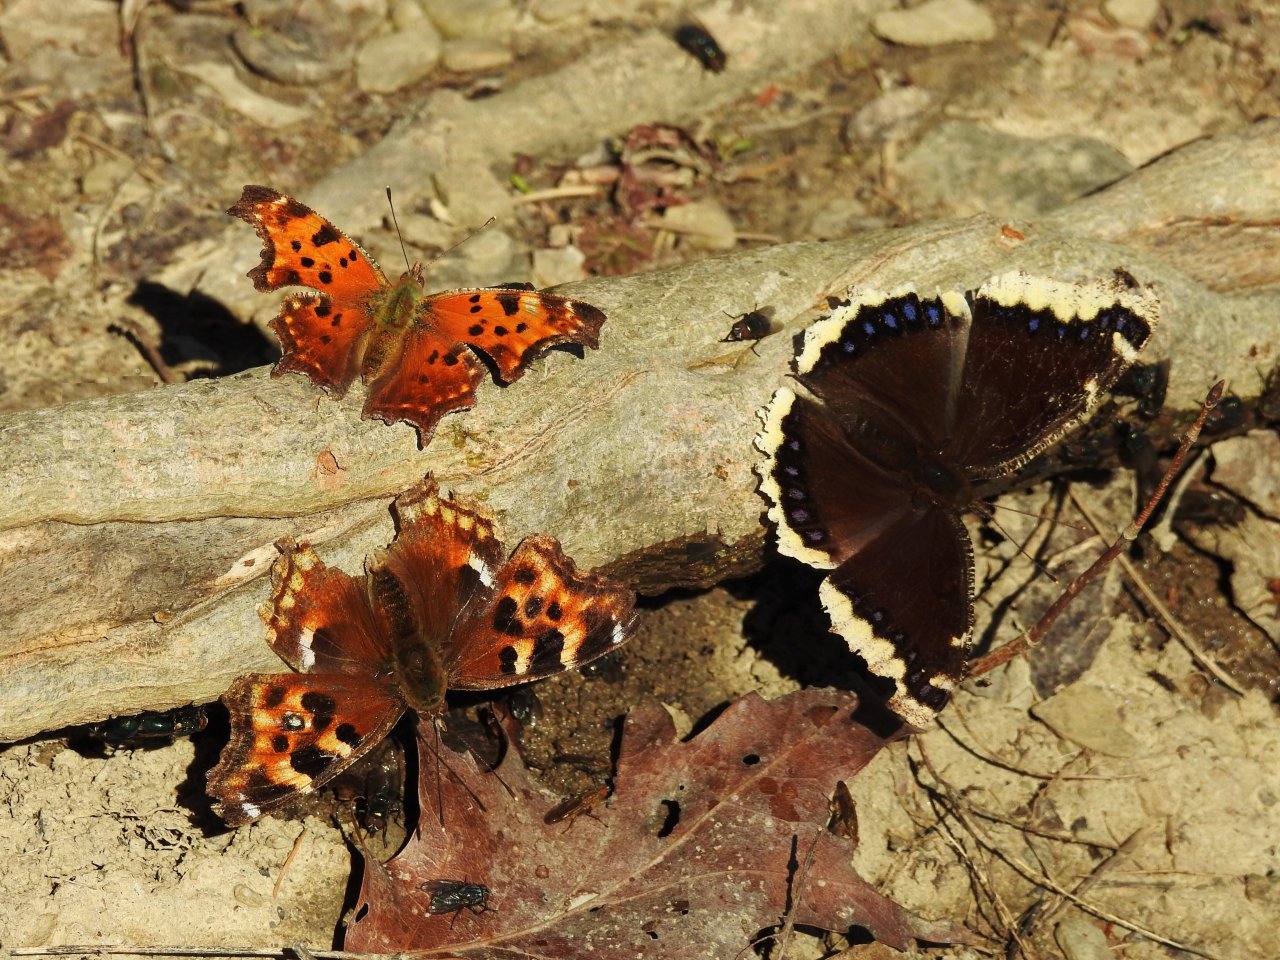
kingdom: Animalia
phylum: Arthropoda
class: Insecta
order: Lepidoptera
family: Nymphalidae
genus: Polygonia
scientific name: Polygonia vaualbum
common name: Compton Tortoiseshell
